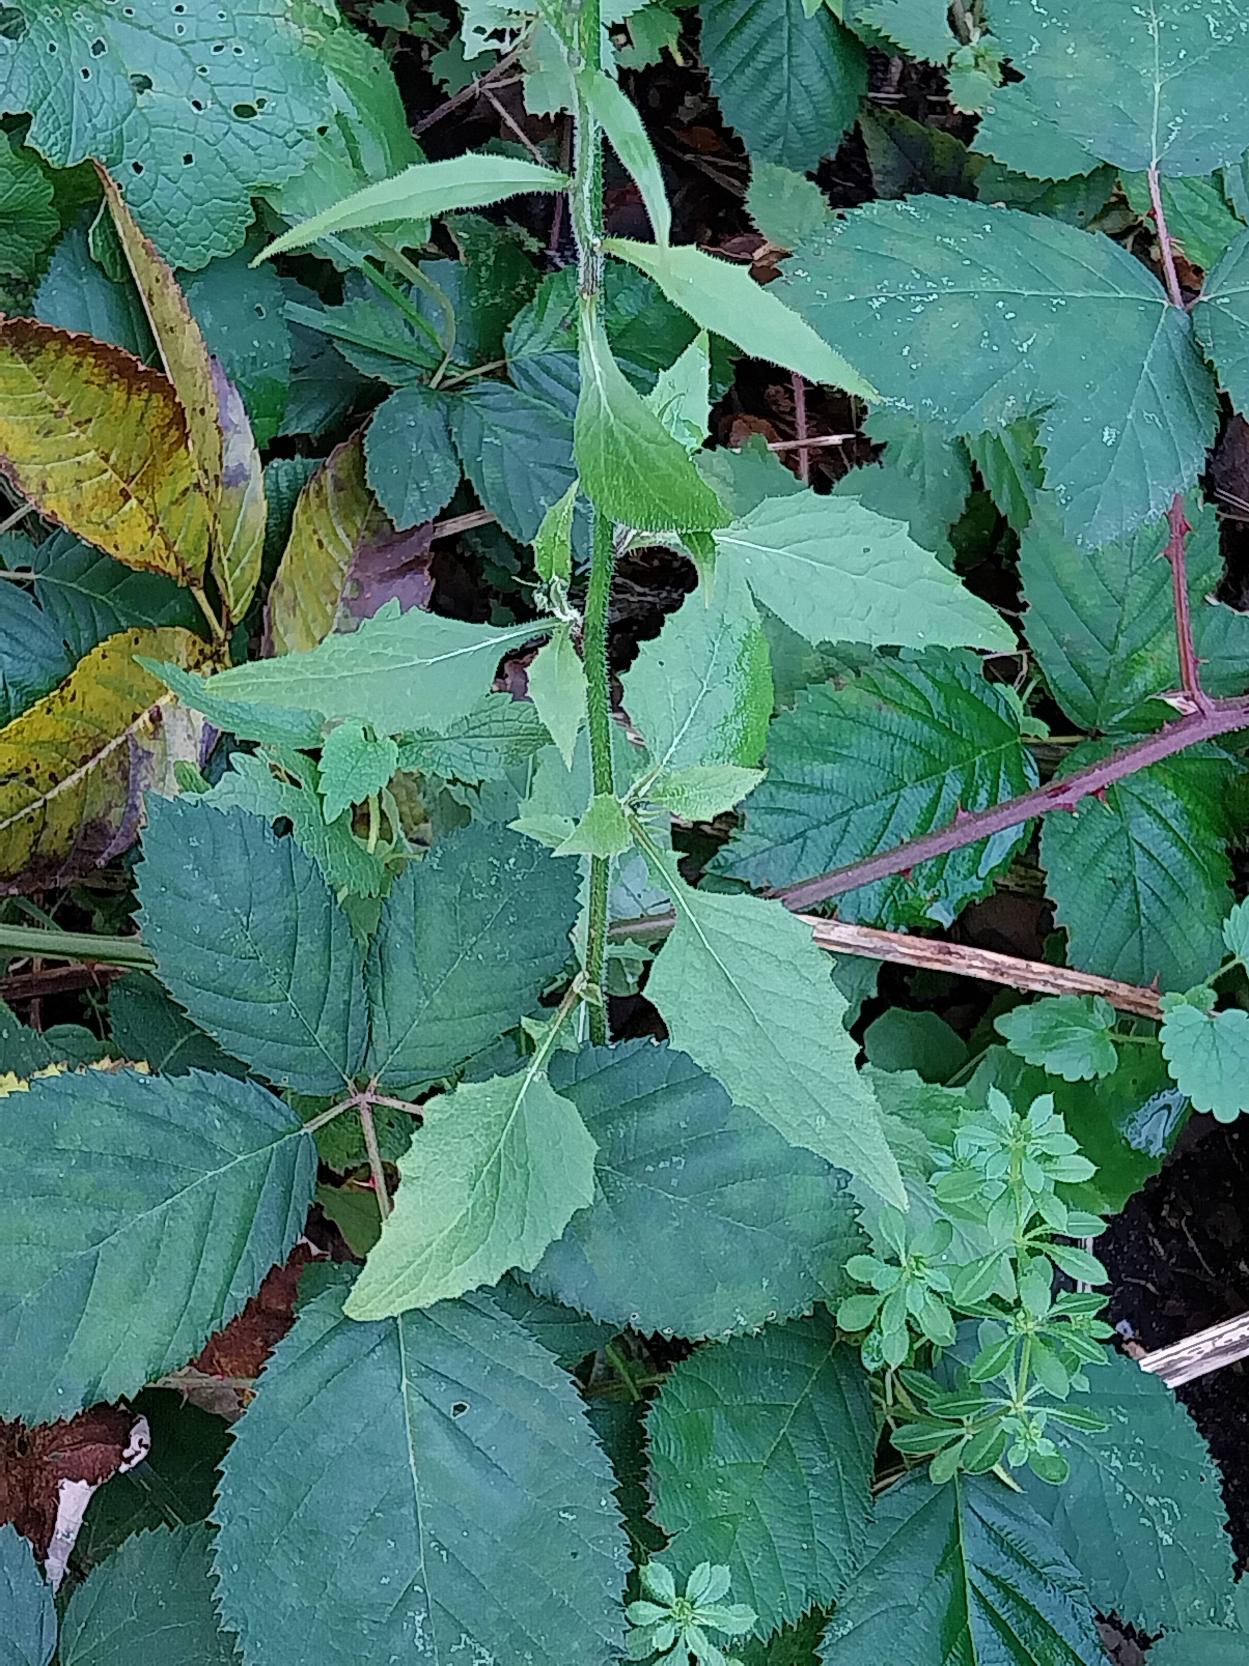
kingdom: Plantae
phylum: Tracheophyta
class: Magnoliopsida
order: Asterales
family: Asteraceae
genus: Lapsana
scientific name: Lapsana communis
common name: Haremad
